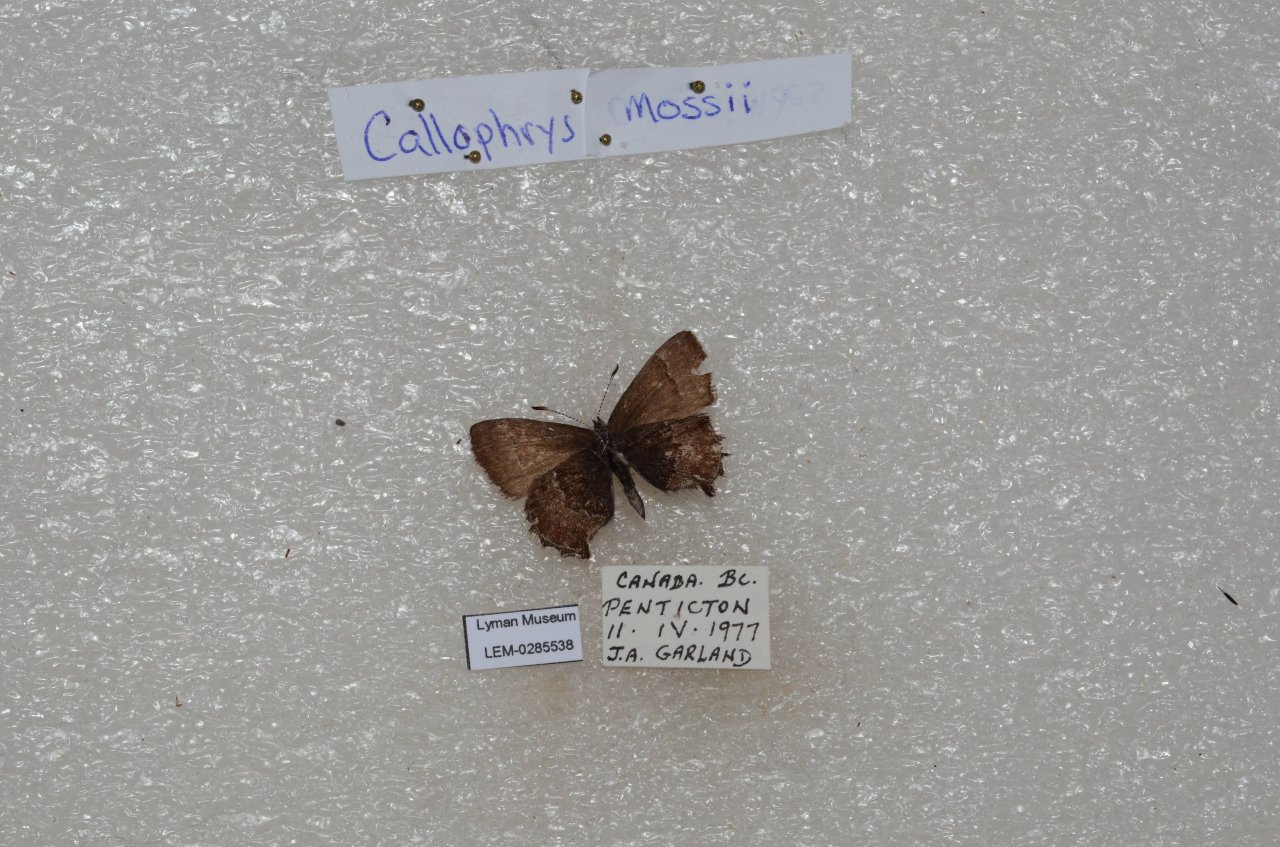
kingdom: Animalia
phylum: Arthropoda
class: Insecta
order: Lepidoptera
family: Lycaenidae
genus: Callophrys
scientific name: Callophrys mossii
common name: Moss' Elfin
